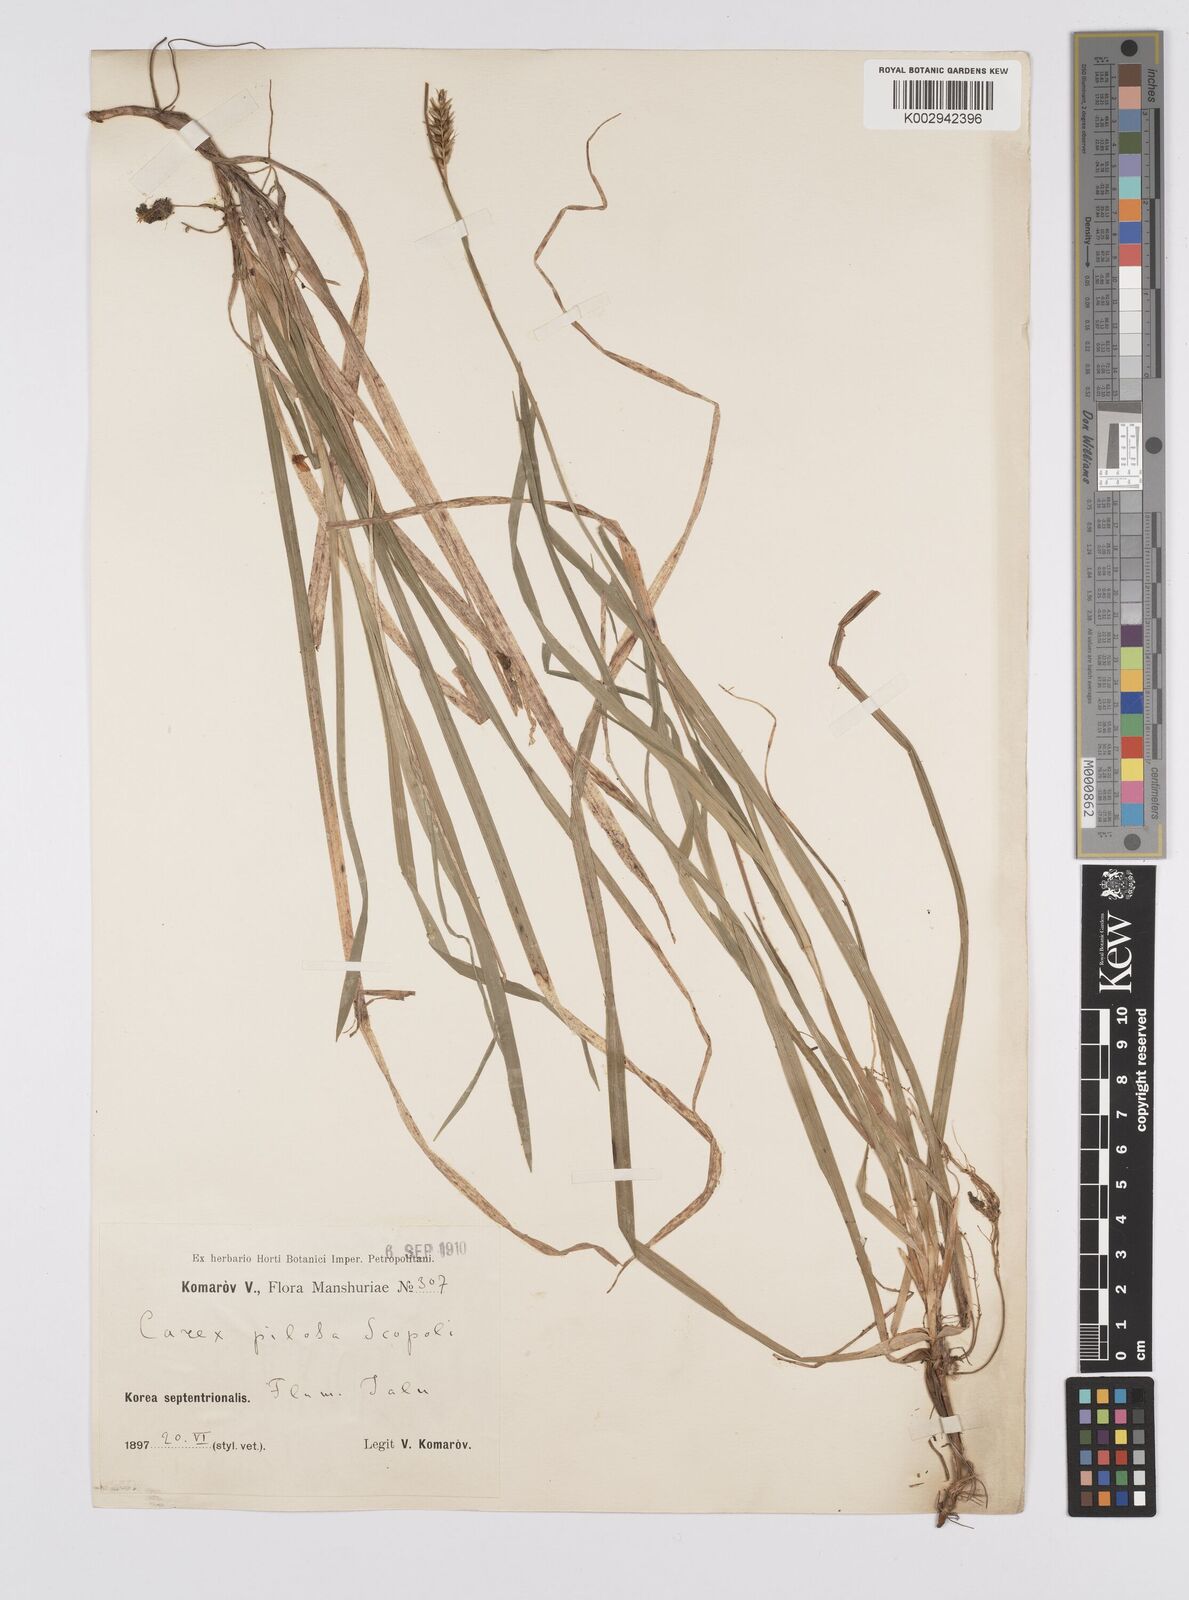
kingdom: Plantae
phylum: Tracheophyta
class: Liliopsida
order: Poales
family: Cyperaceae
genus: Carex
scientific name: Carex pilosa
